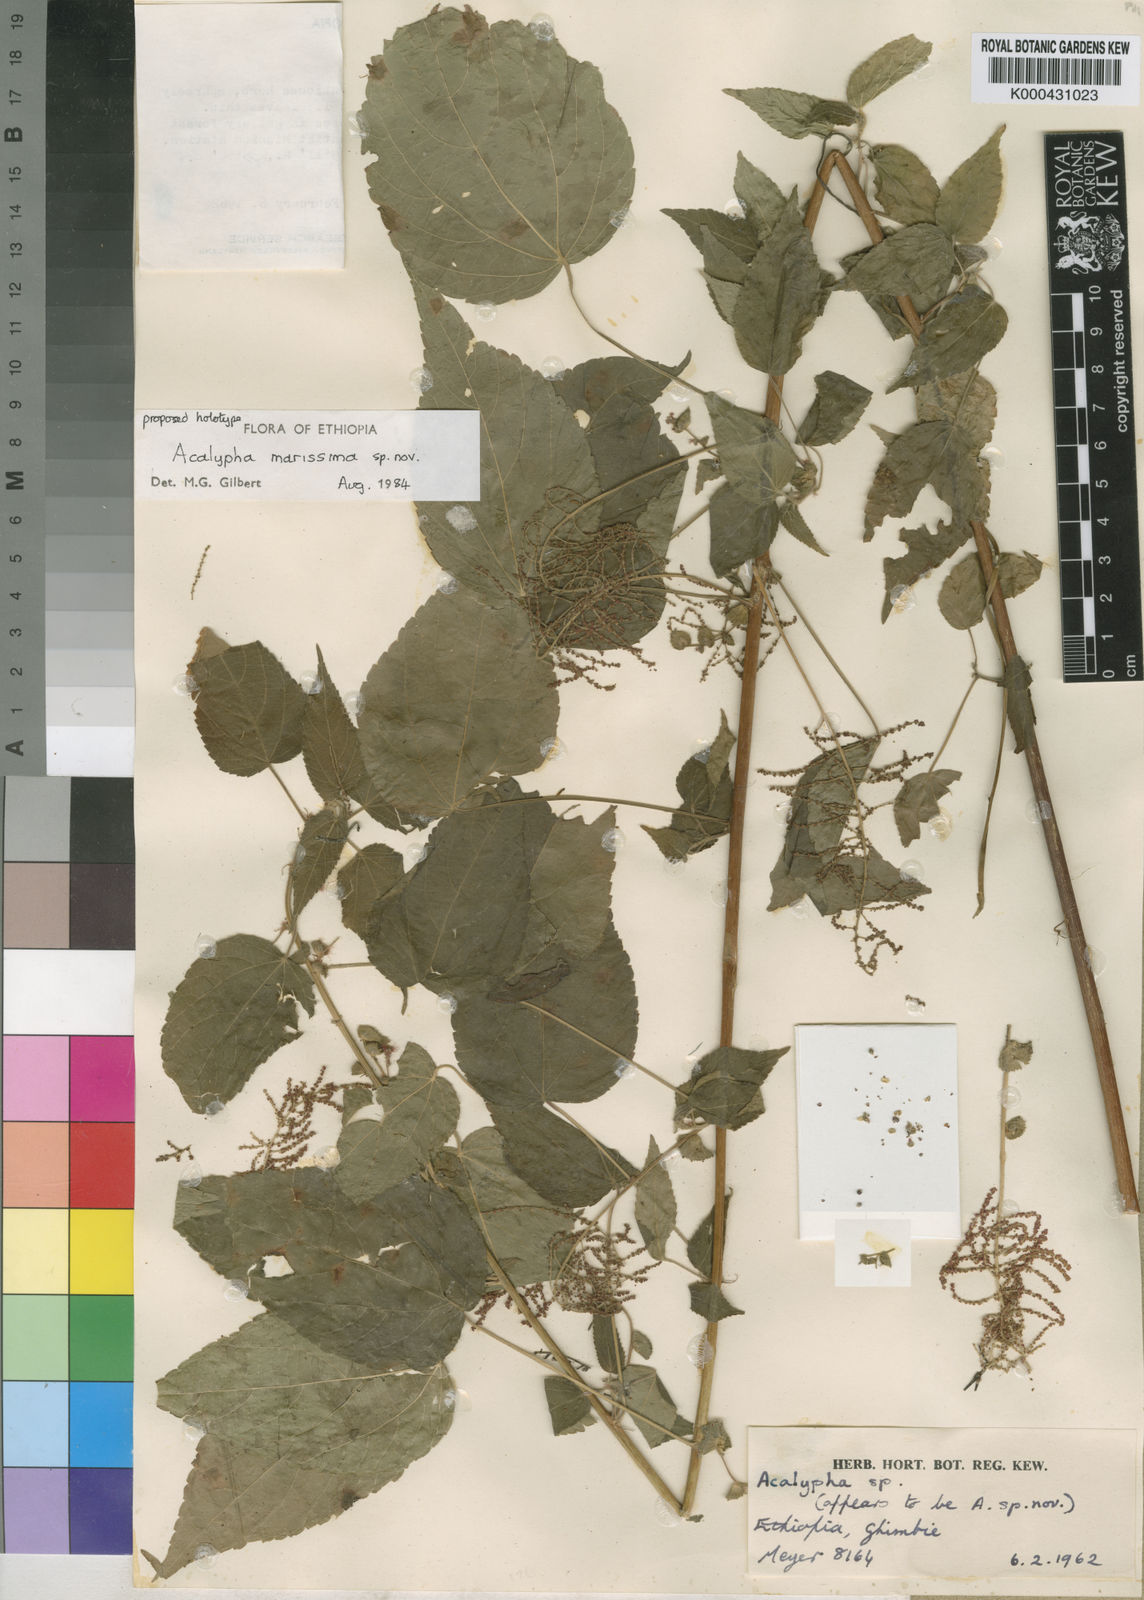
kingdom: Plantae
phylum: Tracheophyta
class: Magnoliopsida
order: Malpighiales
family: Euphorbiaceae
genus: Acalypha
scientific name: Acalypha marissima
